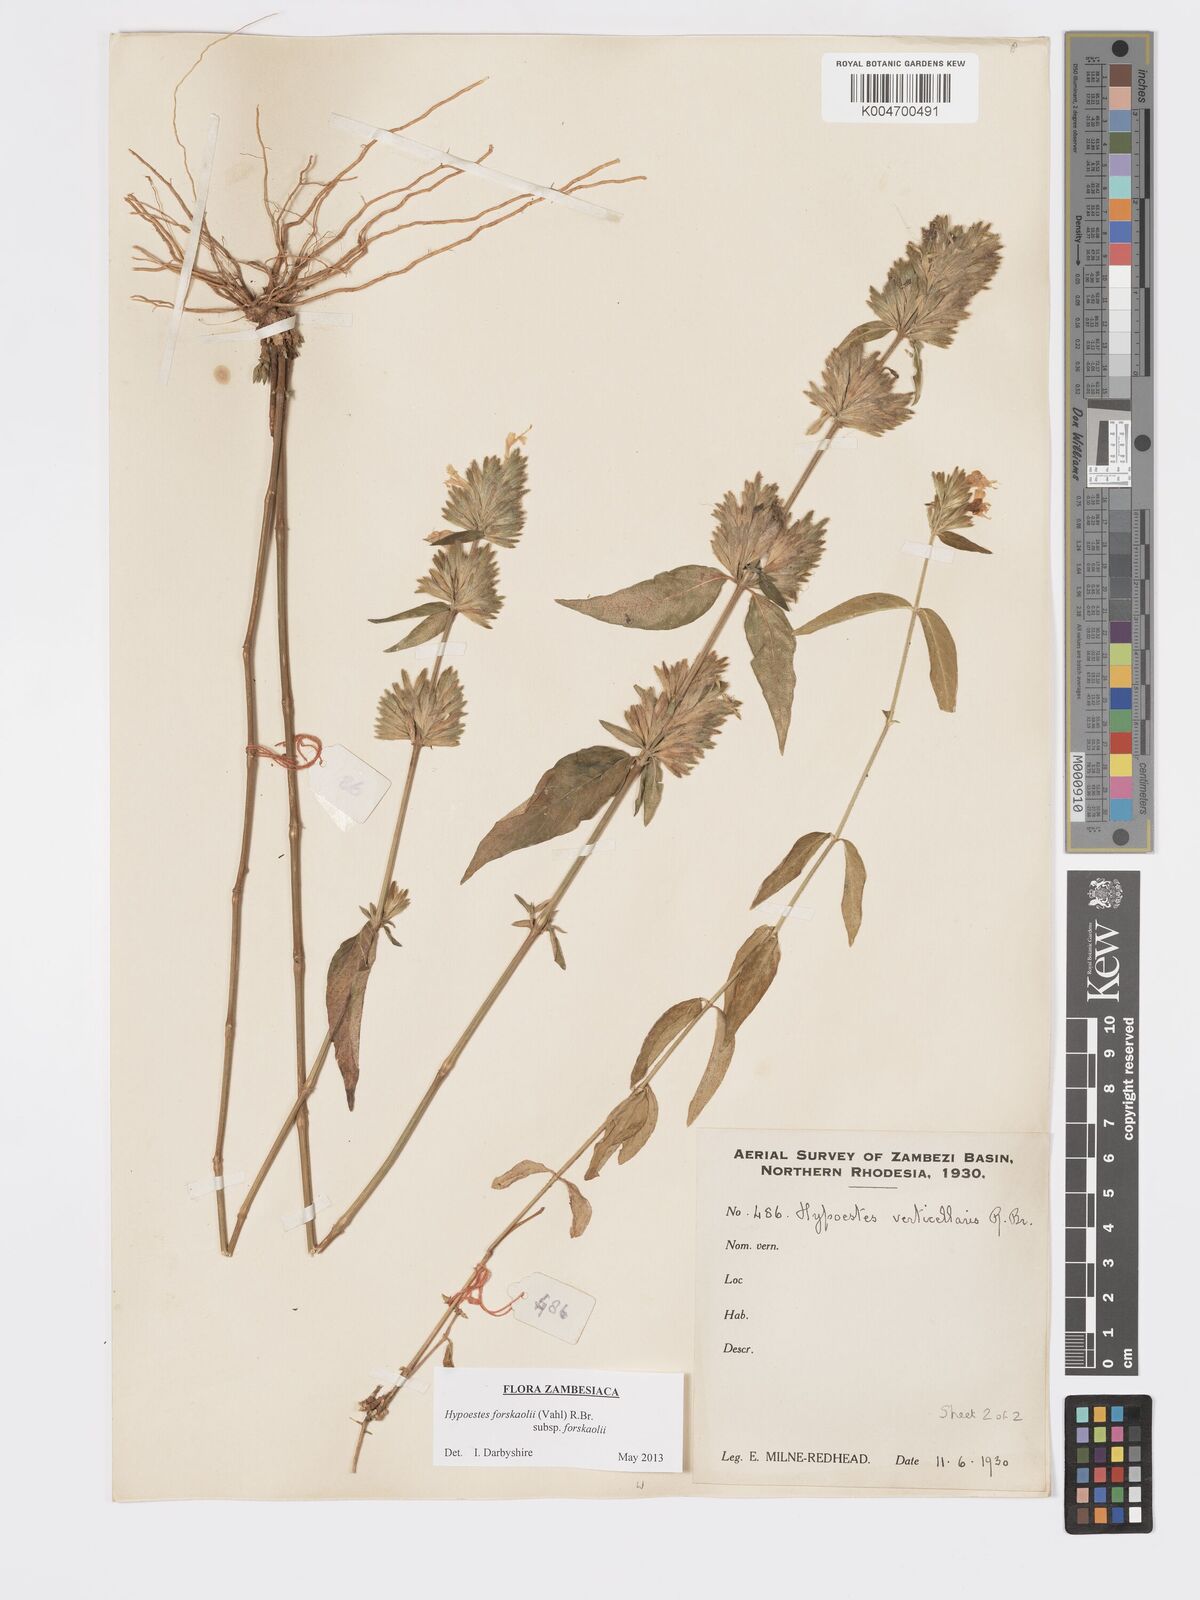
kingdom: Plantae
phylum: Tracheophyta
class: Magnoliopsida
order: Lamiales
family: Acanthaceae
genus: Hypoestes
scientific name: Hypoestes forskaolii
